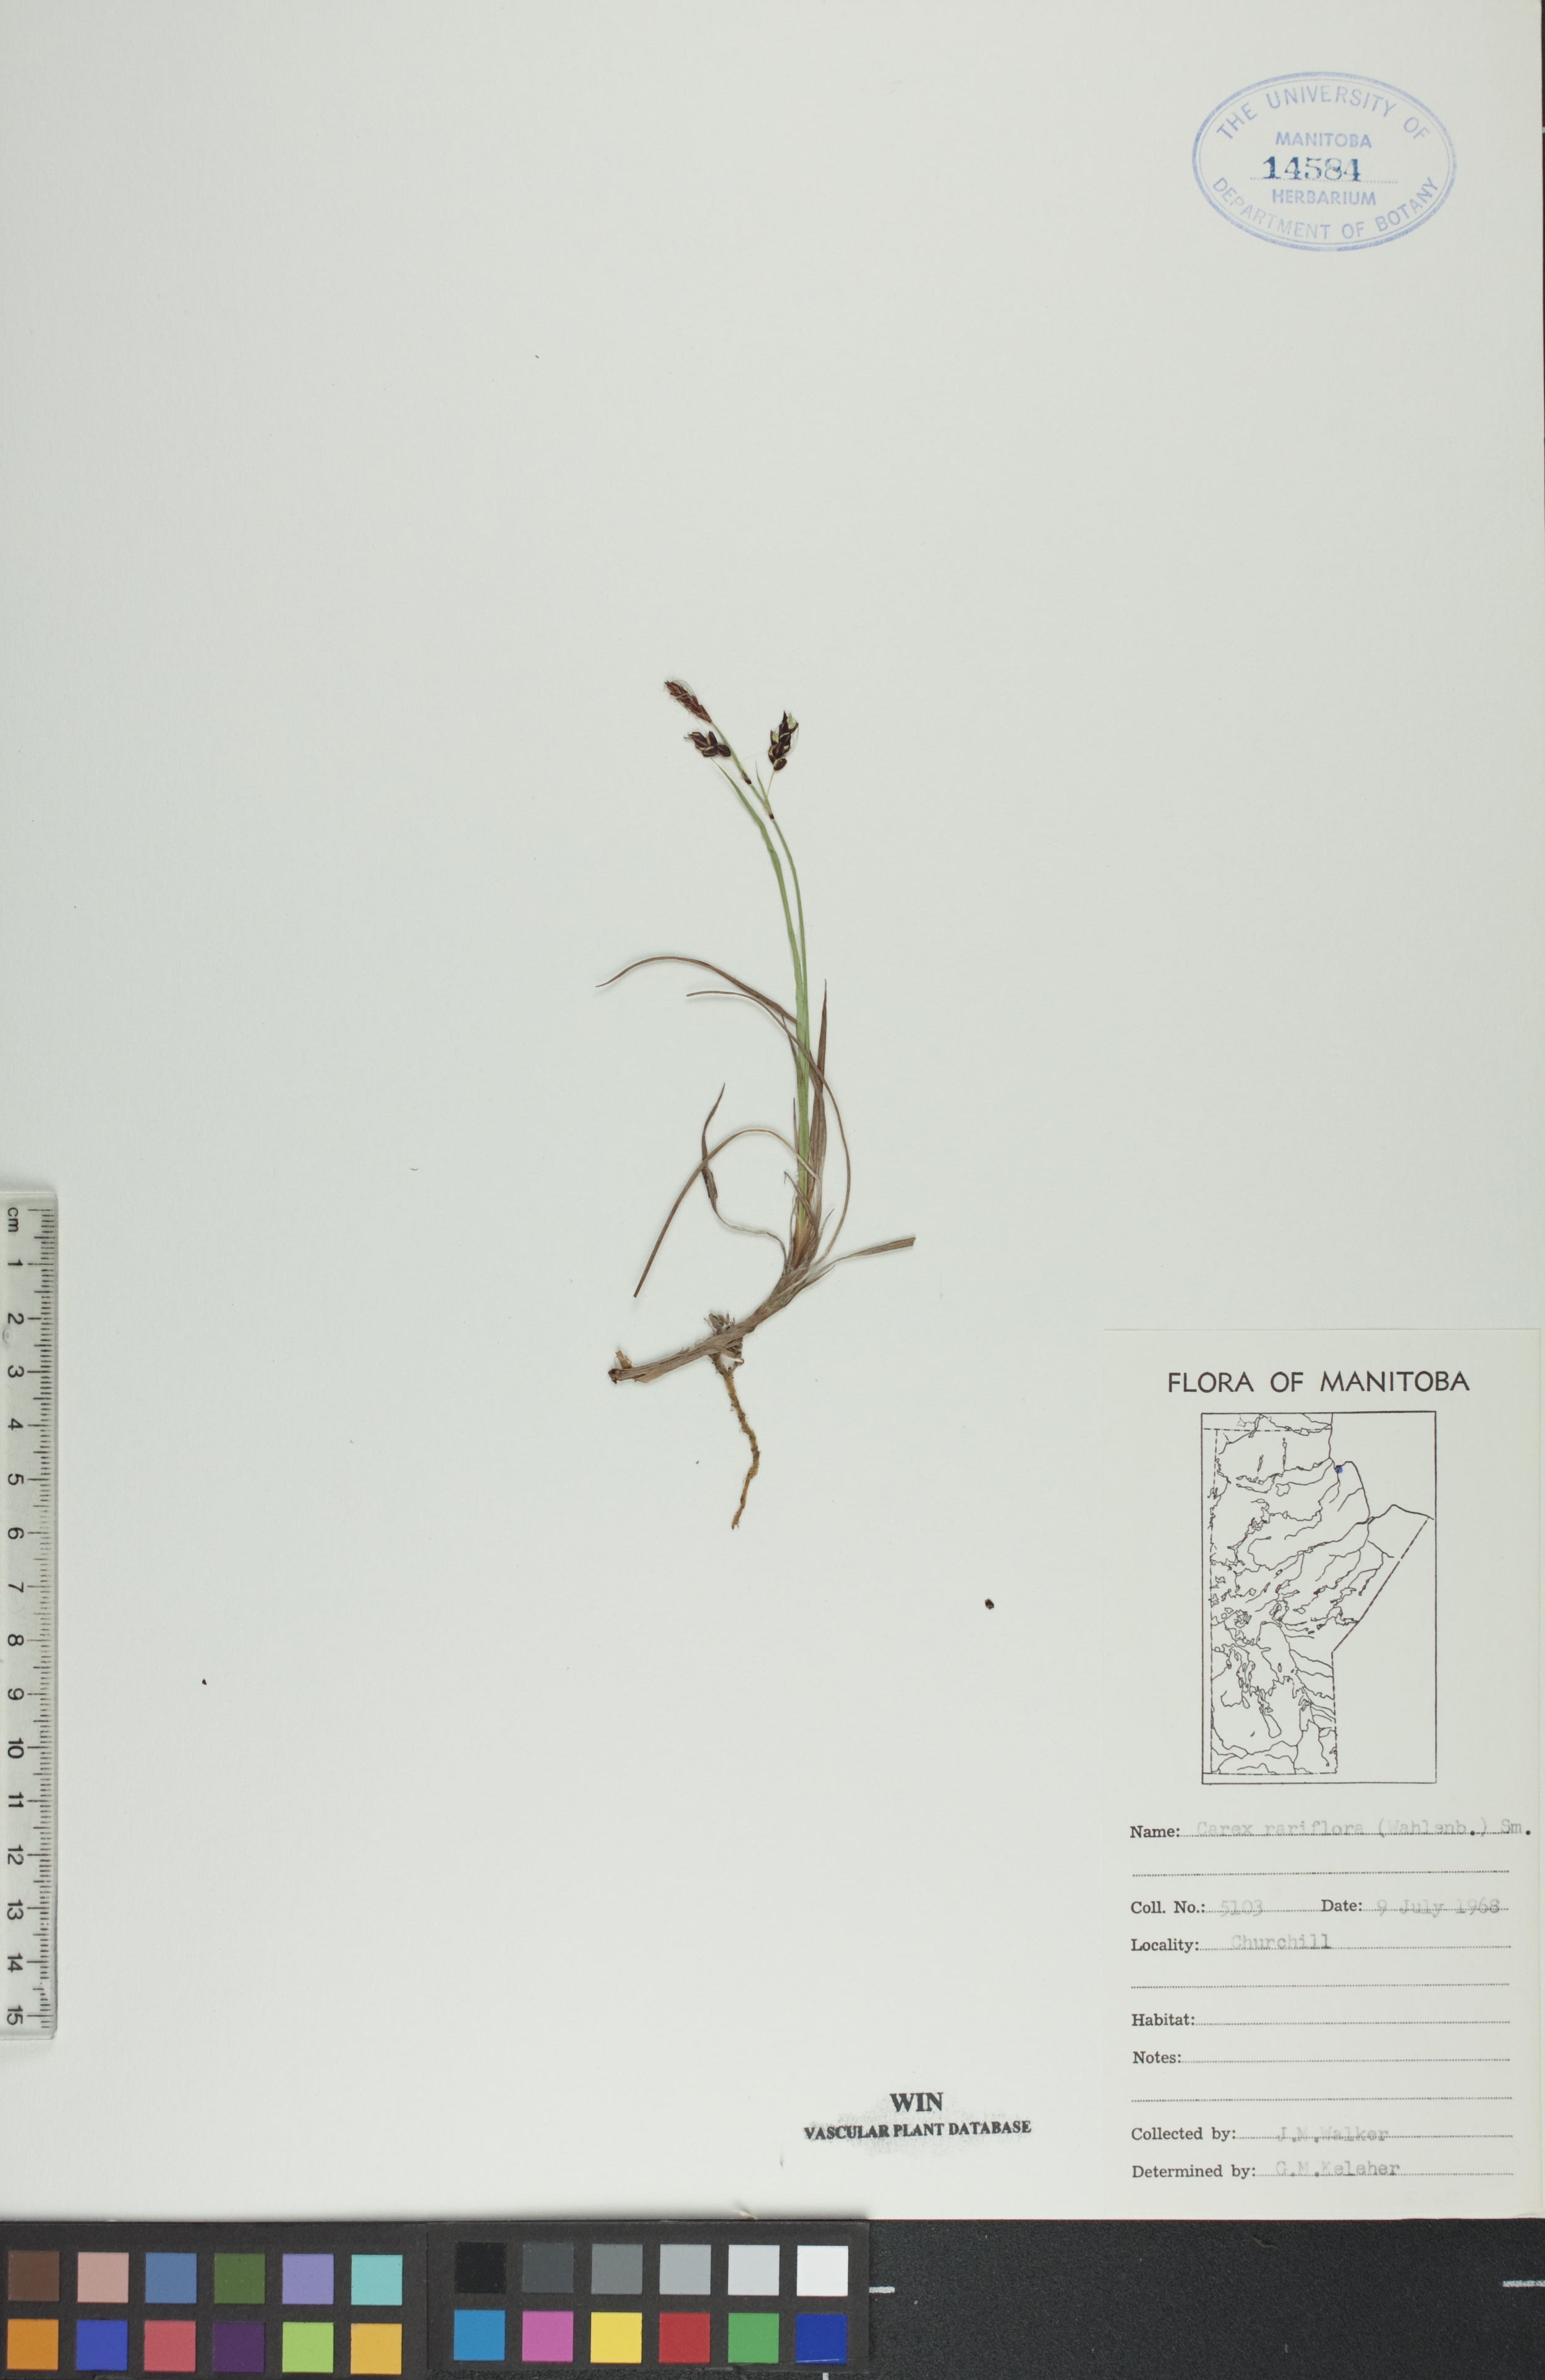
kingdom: Plantae
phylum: Tracheophyta
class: Liliopsida
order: Poales
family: Cyperaceae
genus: Carex
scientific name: Carex rariflora
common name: Loose-flowered alpine sedge
